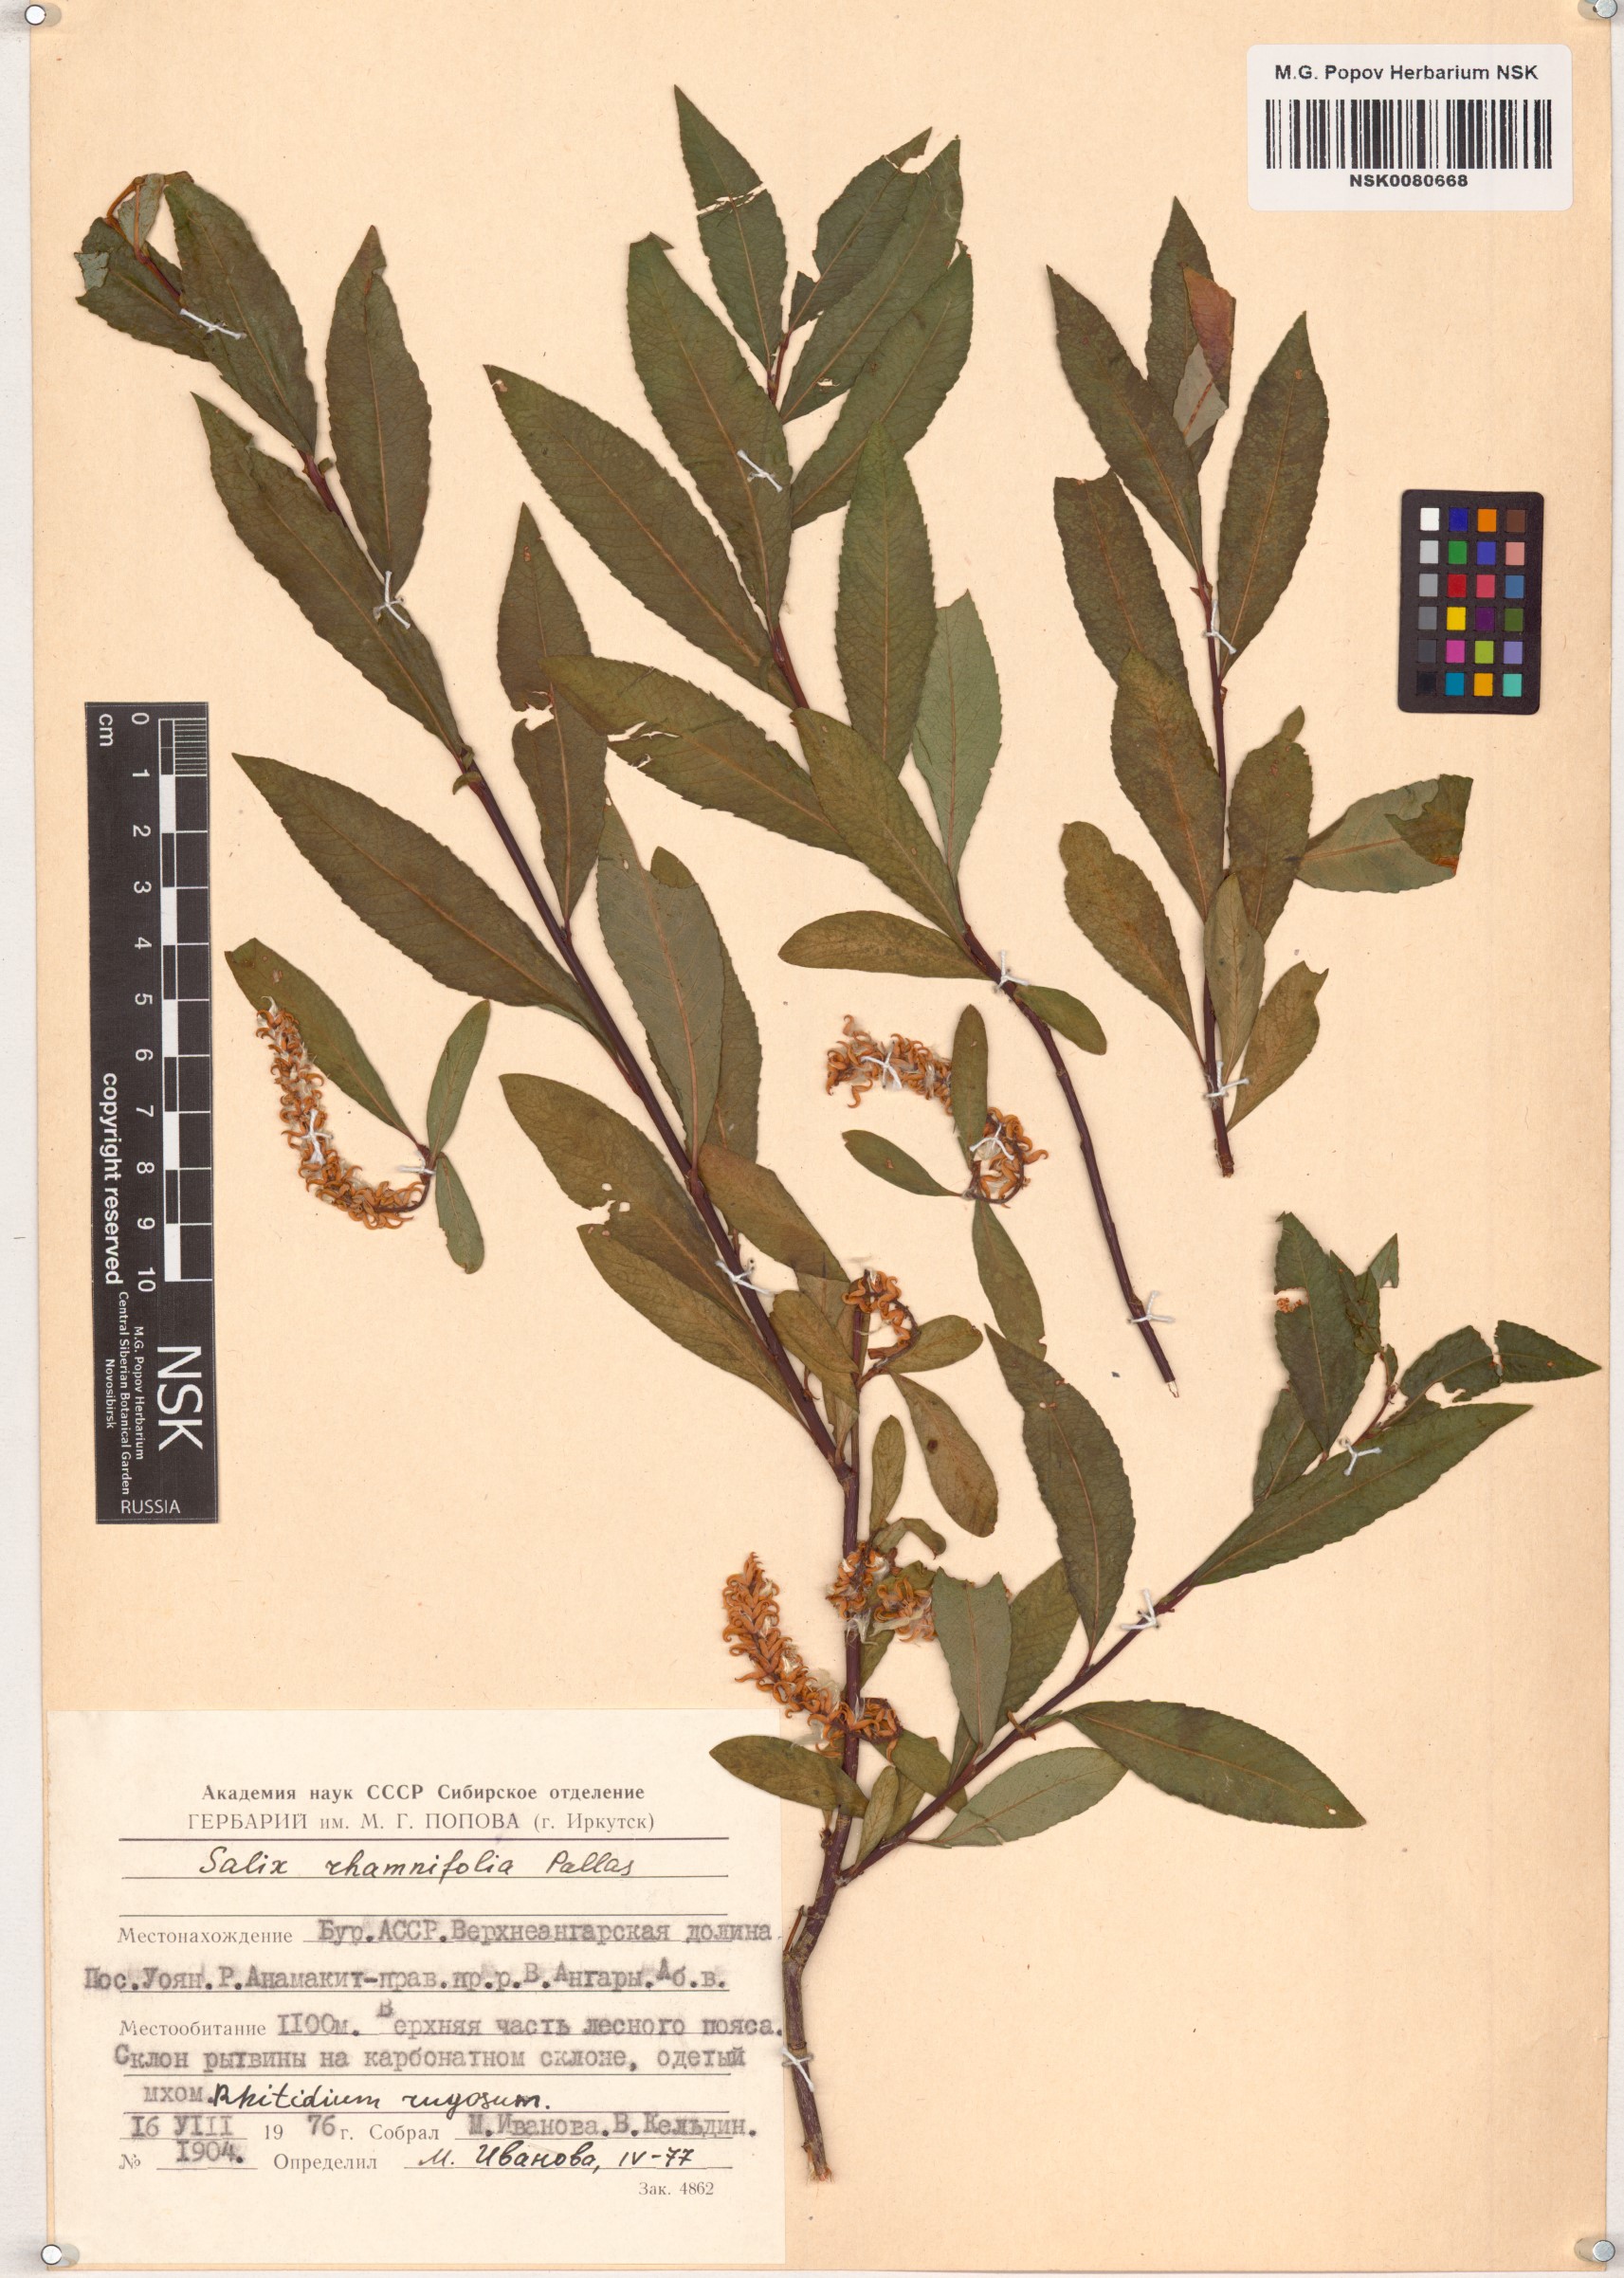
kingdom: Plantae
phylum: Tracheophyta
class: Magnoliopsida
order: Malpighiales
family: Salicaceae
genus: Salix
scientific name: Salix rhamnifolia
